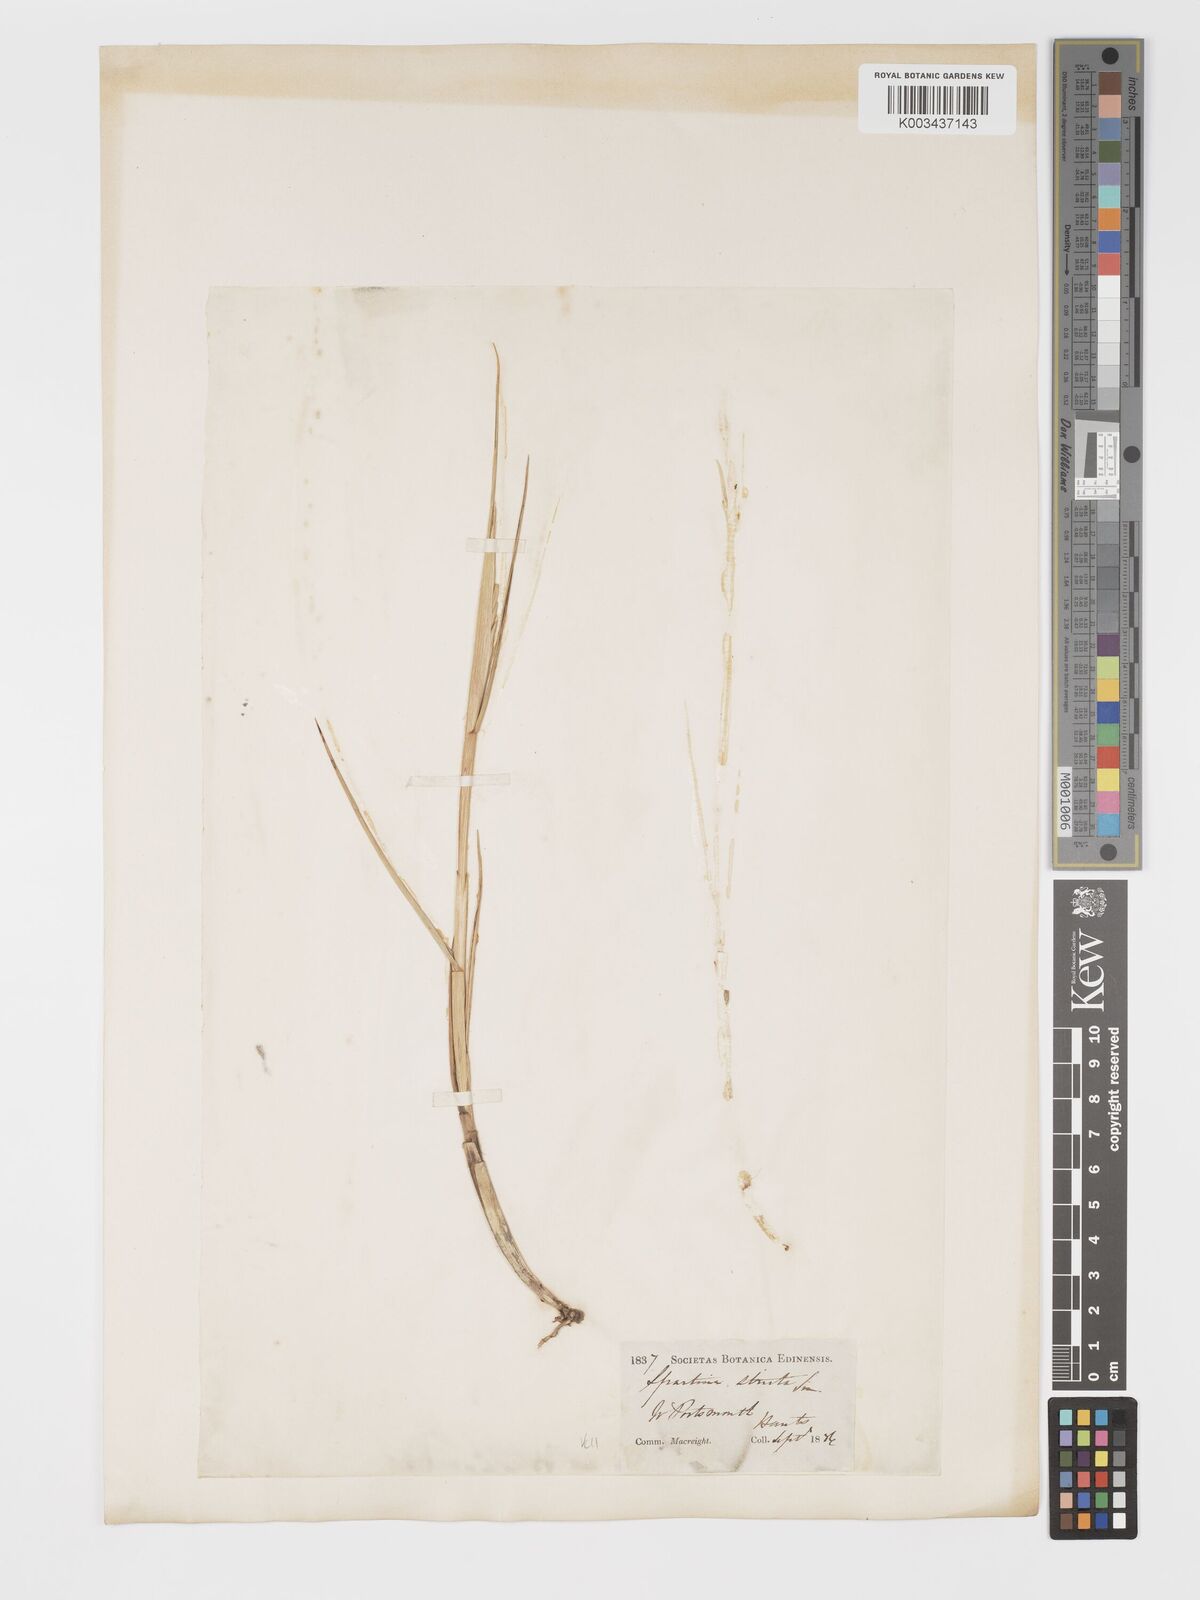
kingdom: Plantae
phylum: Tracheophyta
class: Liliopsida
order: Poales
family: Poaceae
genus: Sporobolus
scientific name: Sporobolus maritimus
